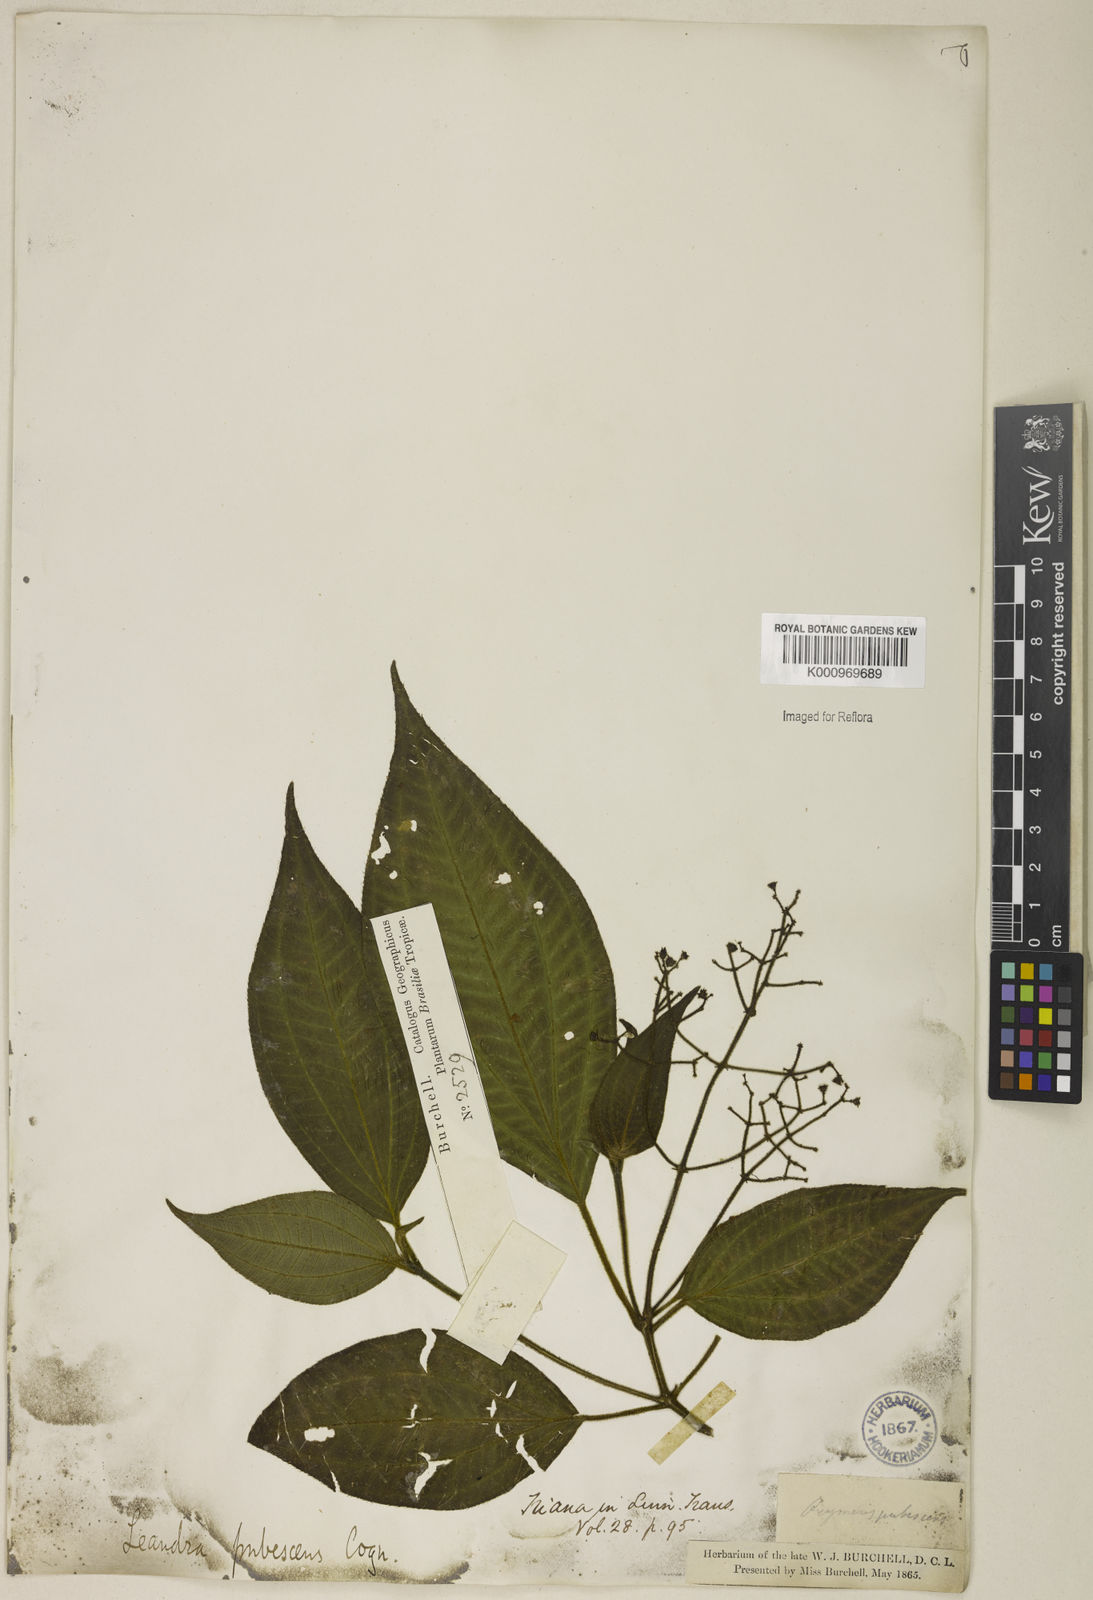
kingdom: Plantae
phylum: Tracheophyta
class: Magnoliopsida
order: Myrtales
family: Melastomataceae
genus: Miconia
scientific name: Miconia strigilliflora
